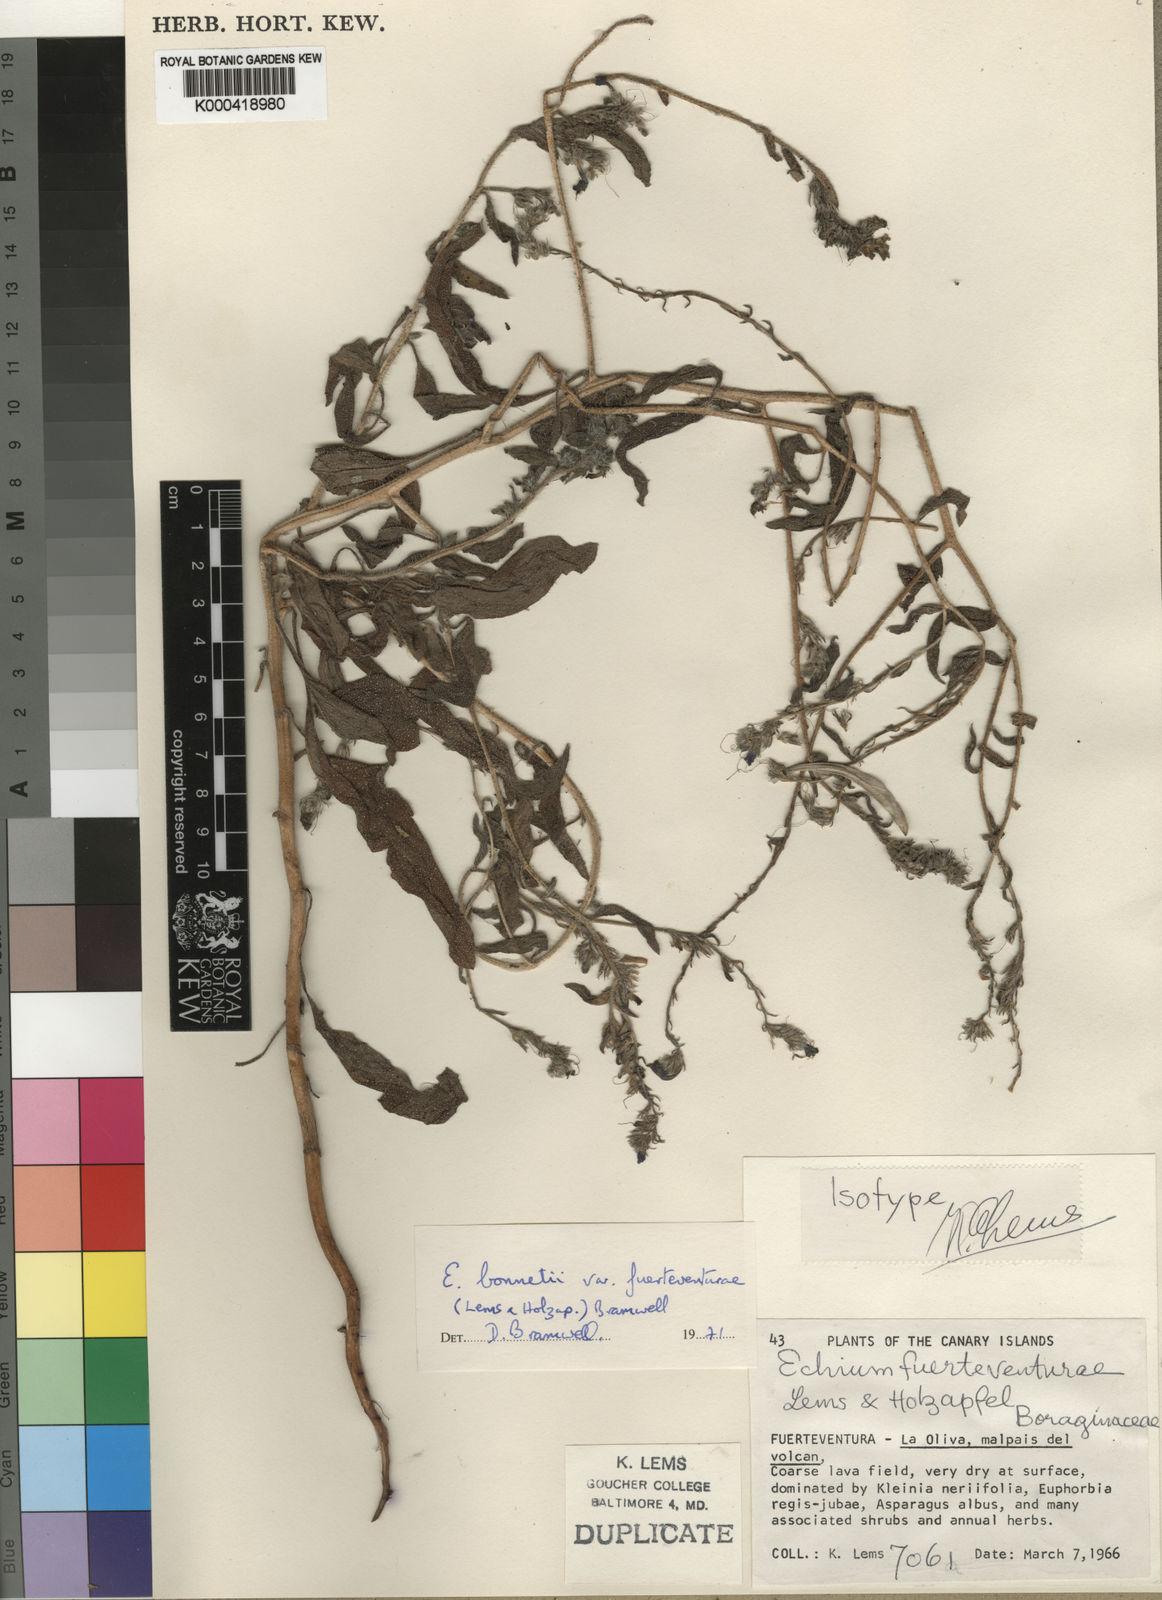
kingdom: Plantae
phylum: Tracheophyta
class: Magnoliopsida
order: Boraginales
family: Boraginaceae
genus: Echium
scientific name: Echium bonnetii
